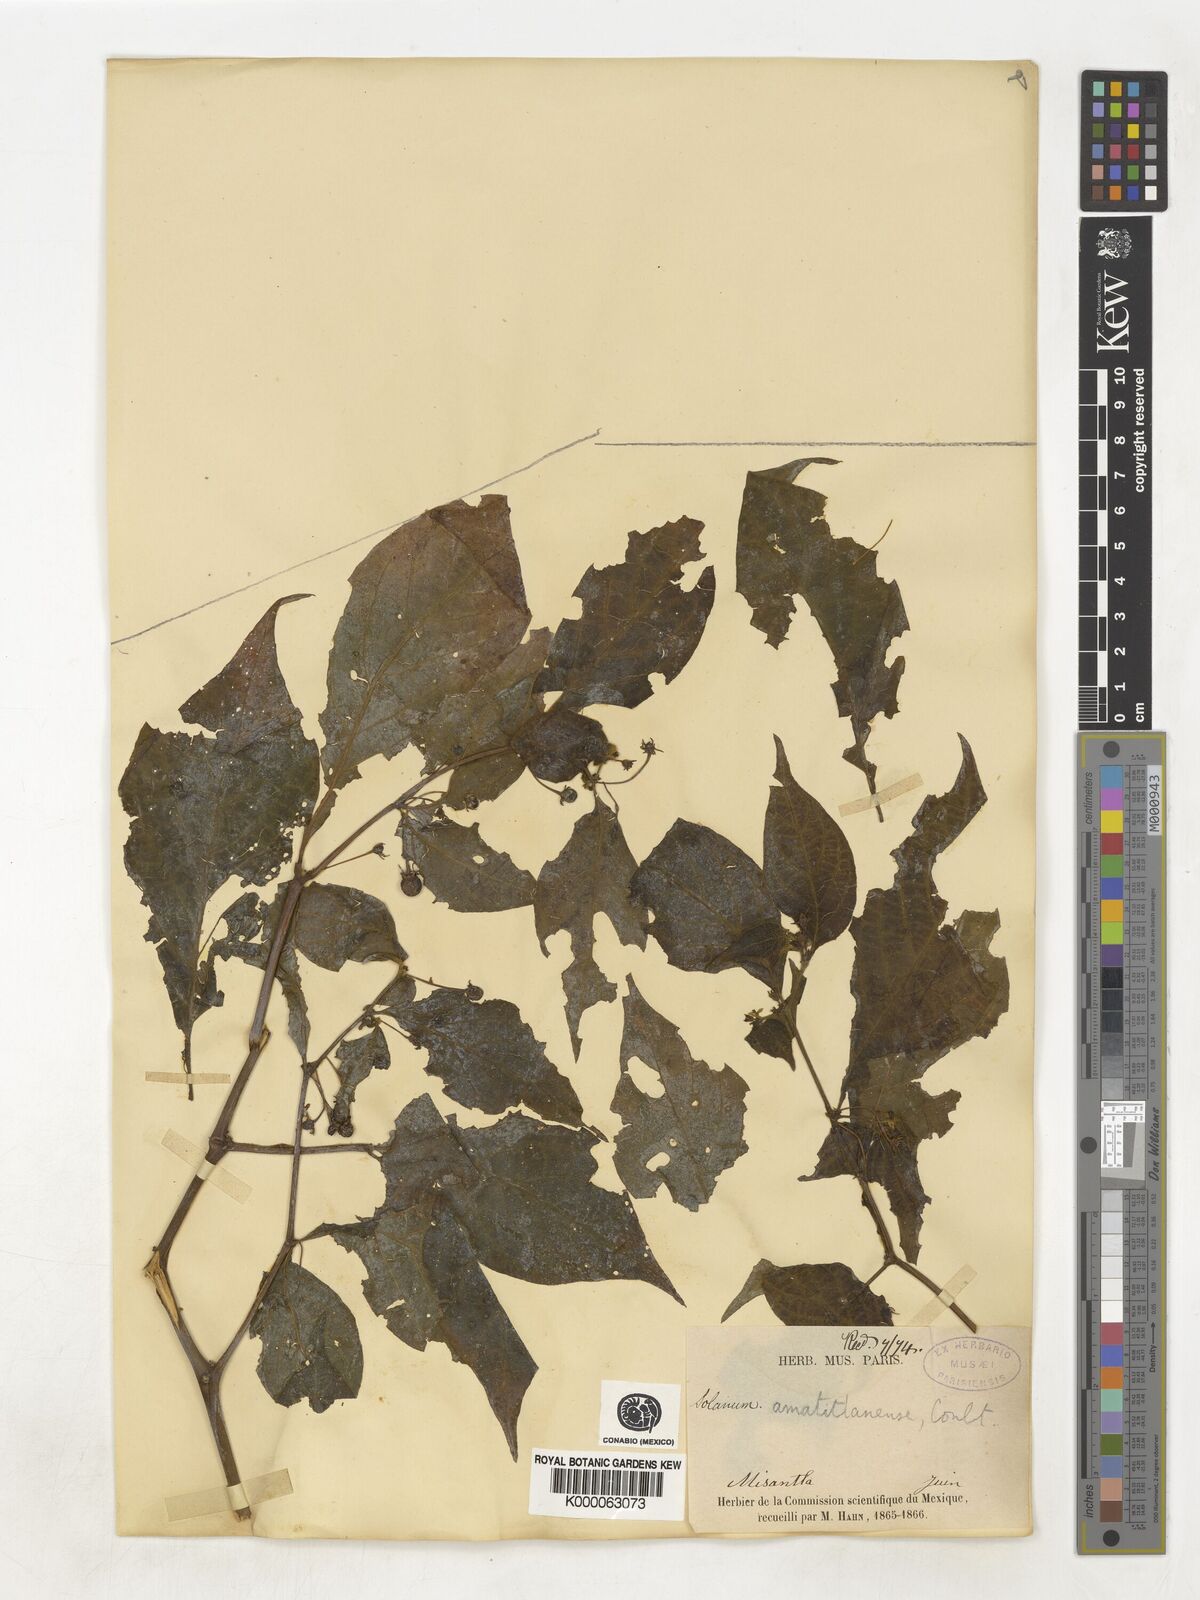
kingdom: Plantae
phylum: Tracheophyta
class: Magnoliopsida
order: Solanales
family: Solanaceae
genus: Lycianthes
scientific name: Lycianthes
